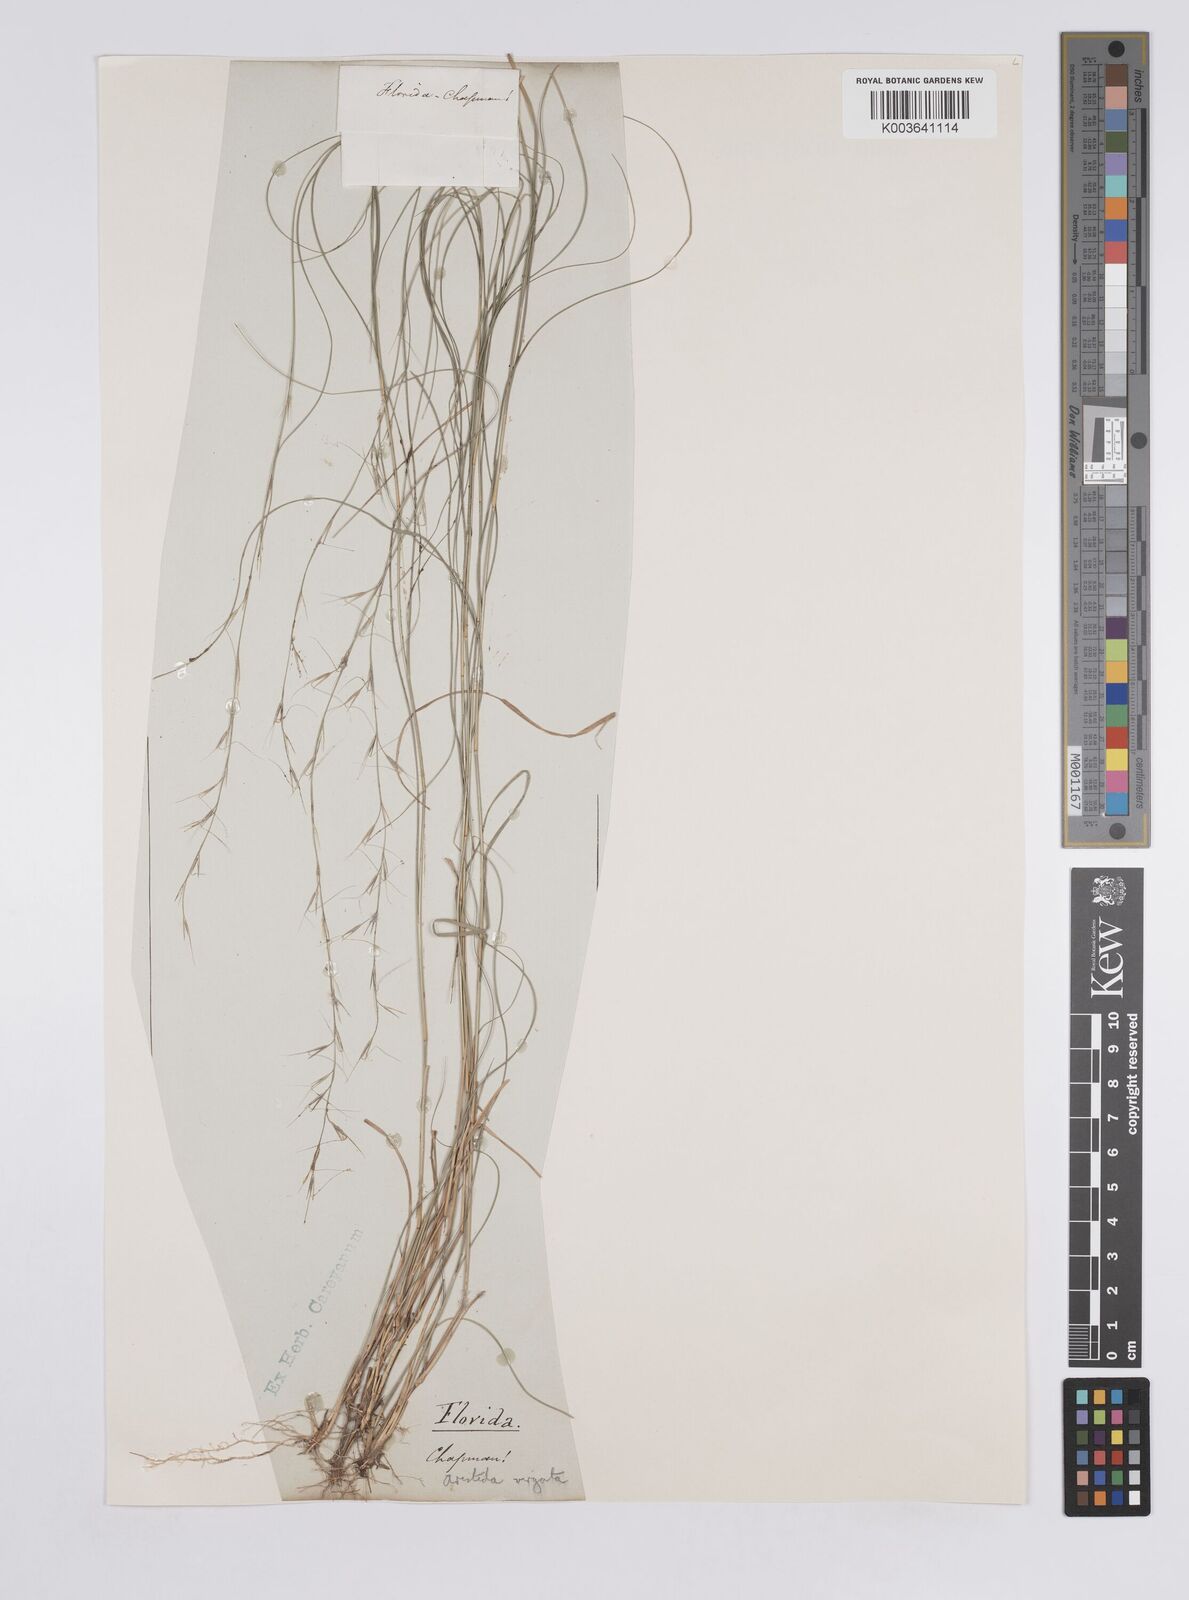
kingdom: Plantae
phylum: Tracheophyta
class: Liliopsida
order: Poales
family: Poaceae
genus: Aristida
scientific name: Aristida purpurascens
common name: Arrow-feather
